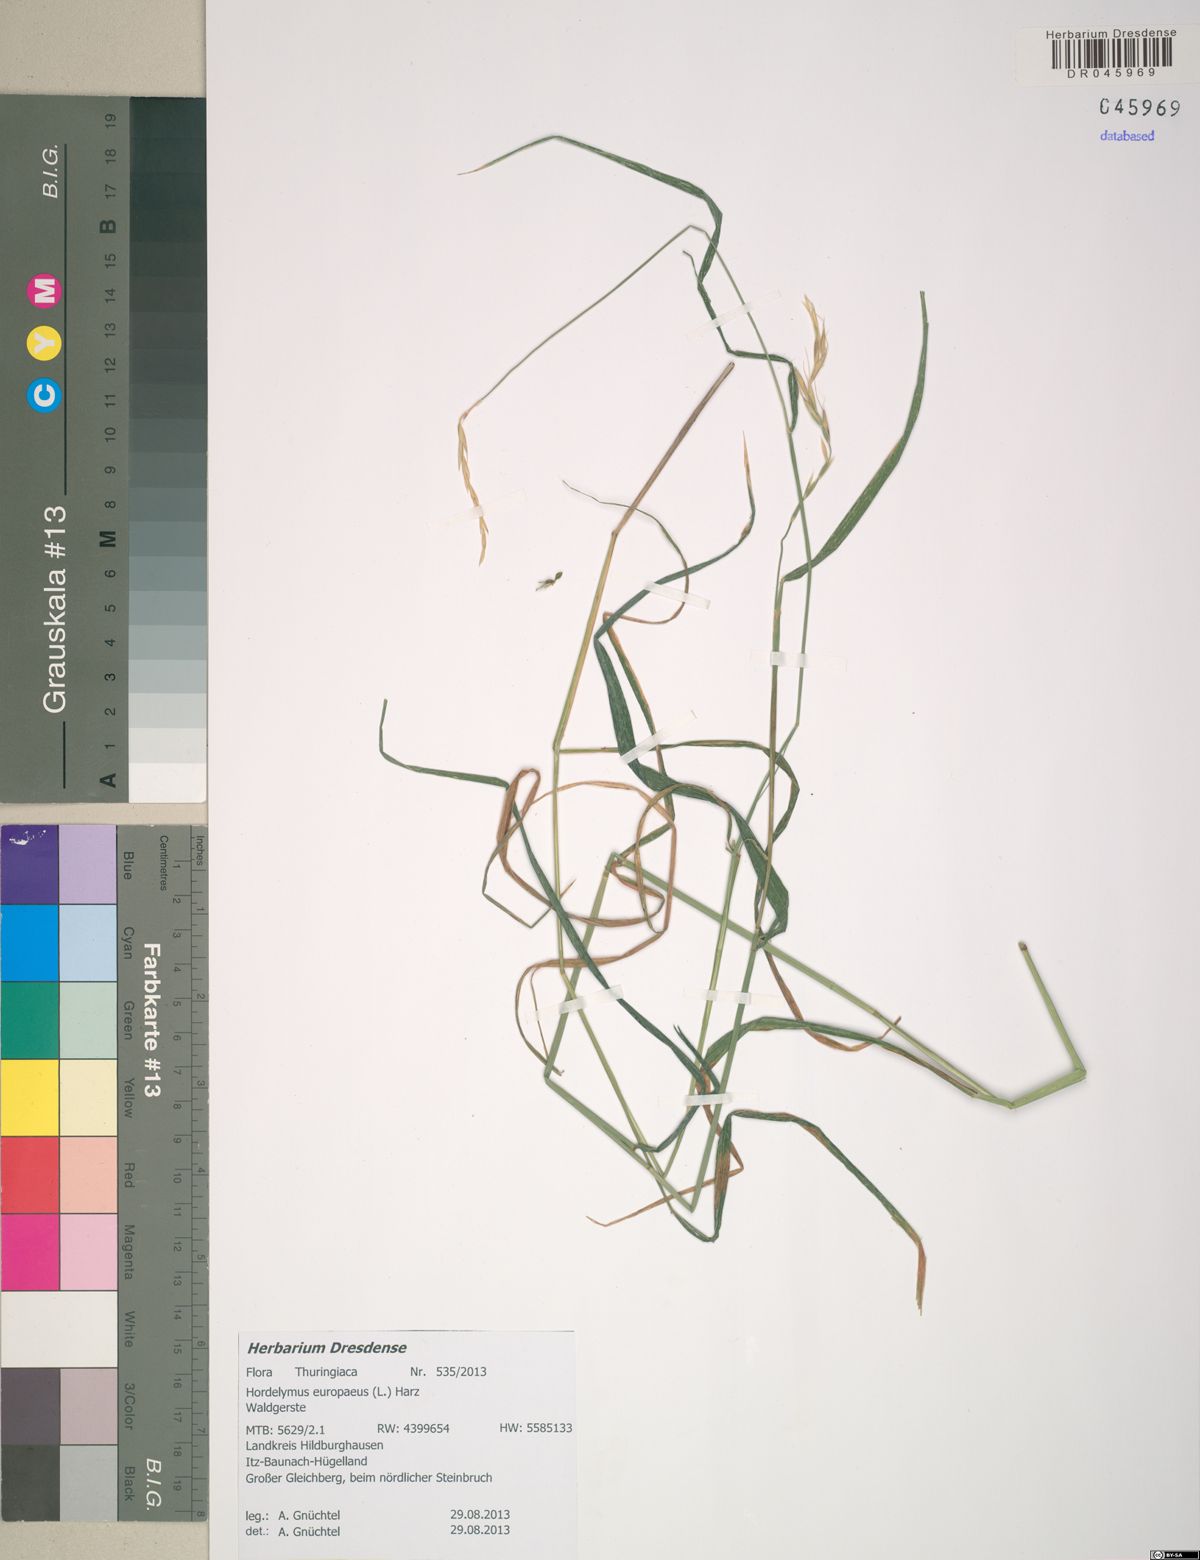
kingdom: Plantae
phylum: Tracheophyta
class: Liliopsida
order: Poales
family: Poaceae
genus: Hordelymus
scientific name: Hordelymus europaeus
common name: Wood-barley
